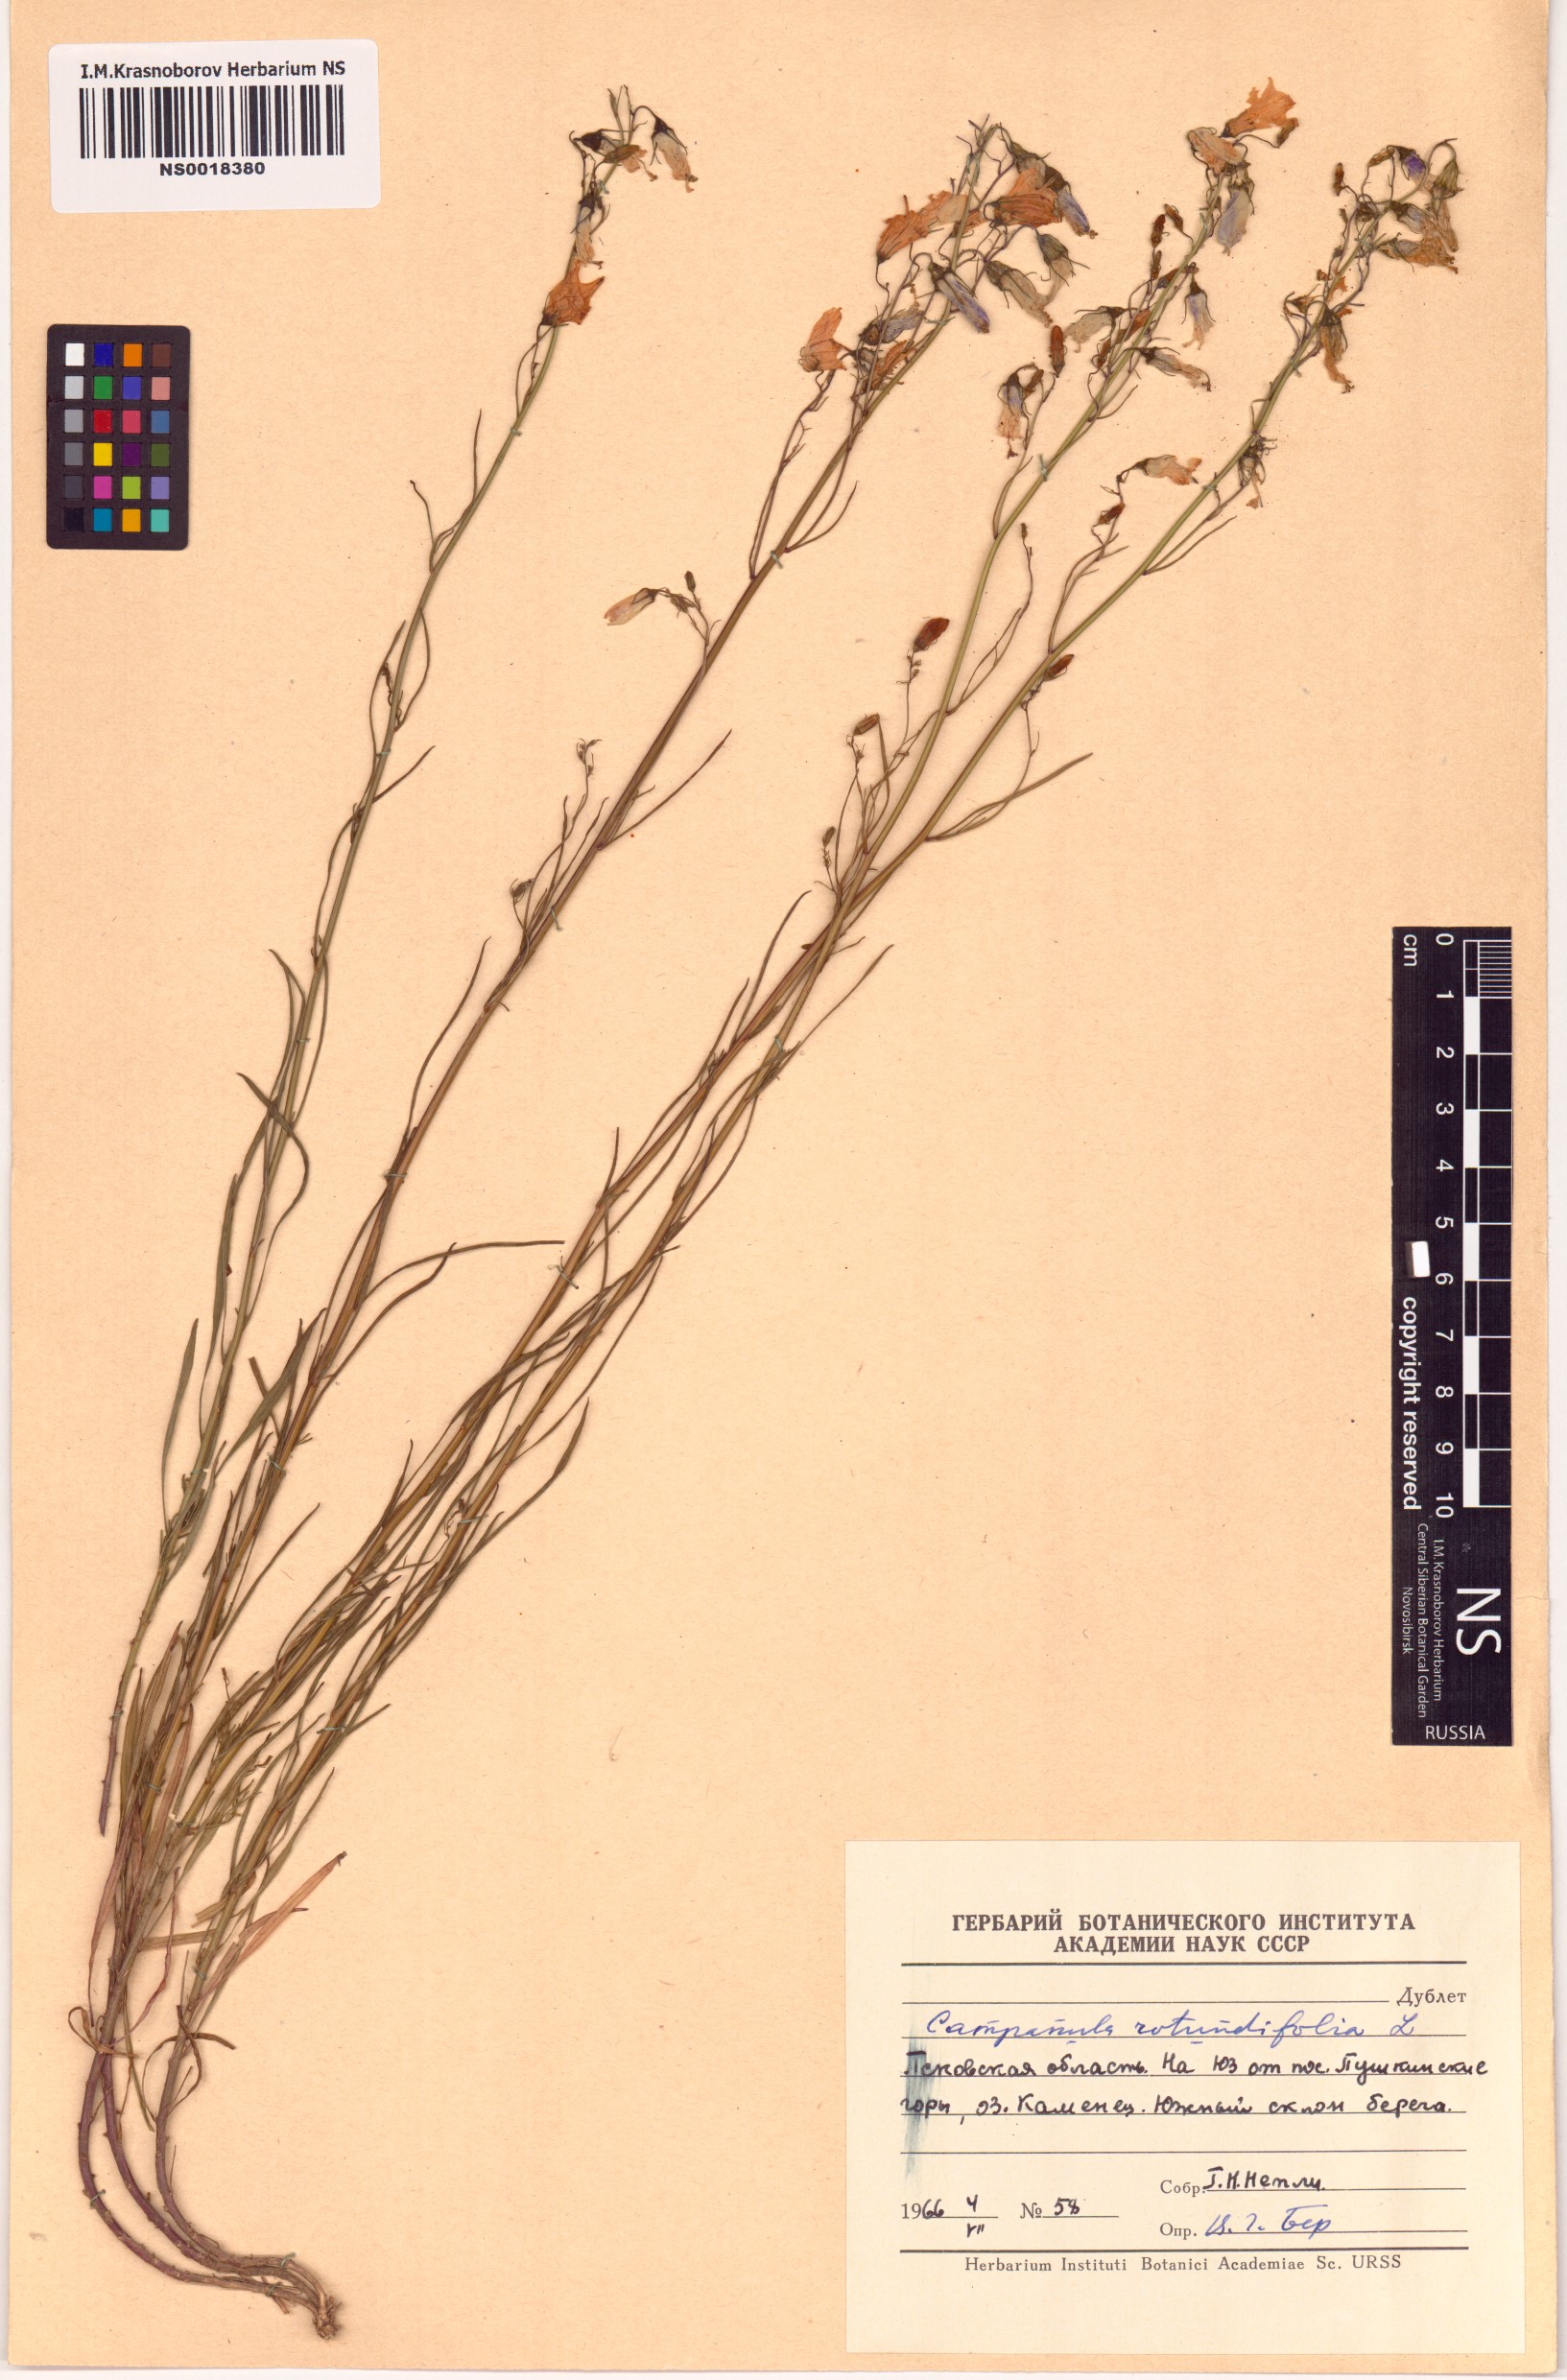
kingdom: Plantae
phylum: Tracheophyta
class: Magnoliopsida
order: Asterales
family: Campanulaceae
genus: Campanula
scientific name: Campanula rotundifolia
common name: Harebell
